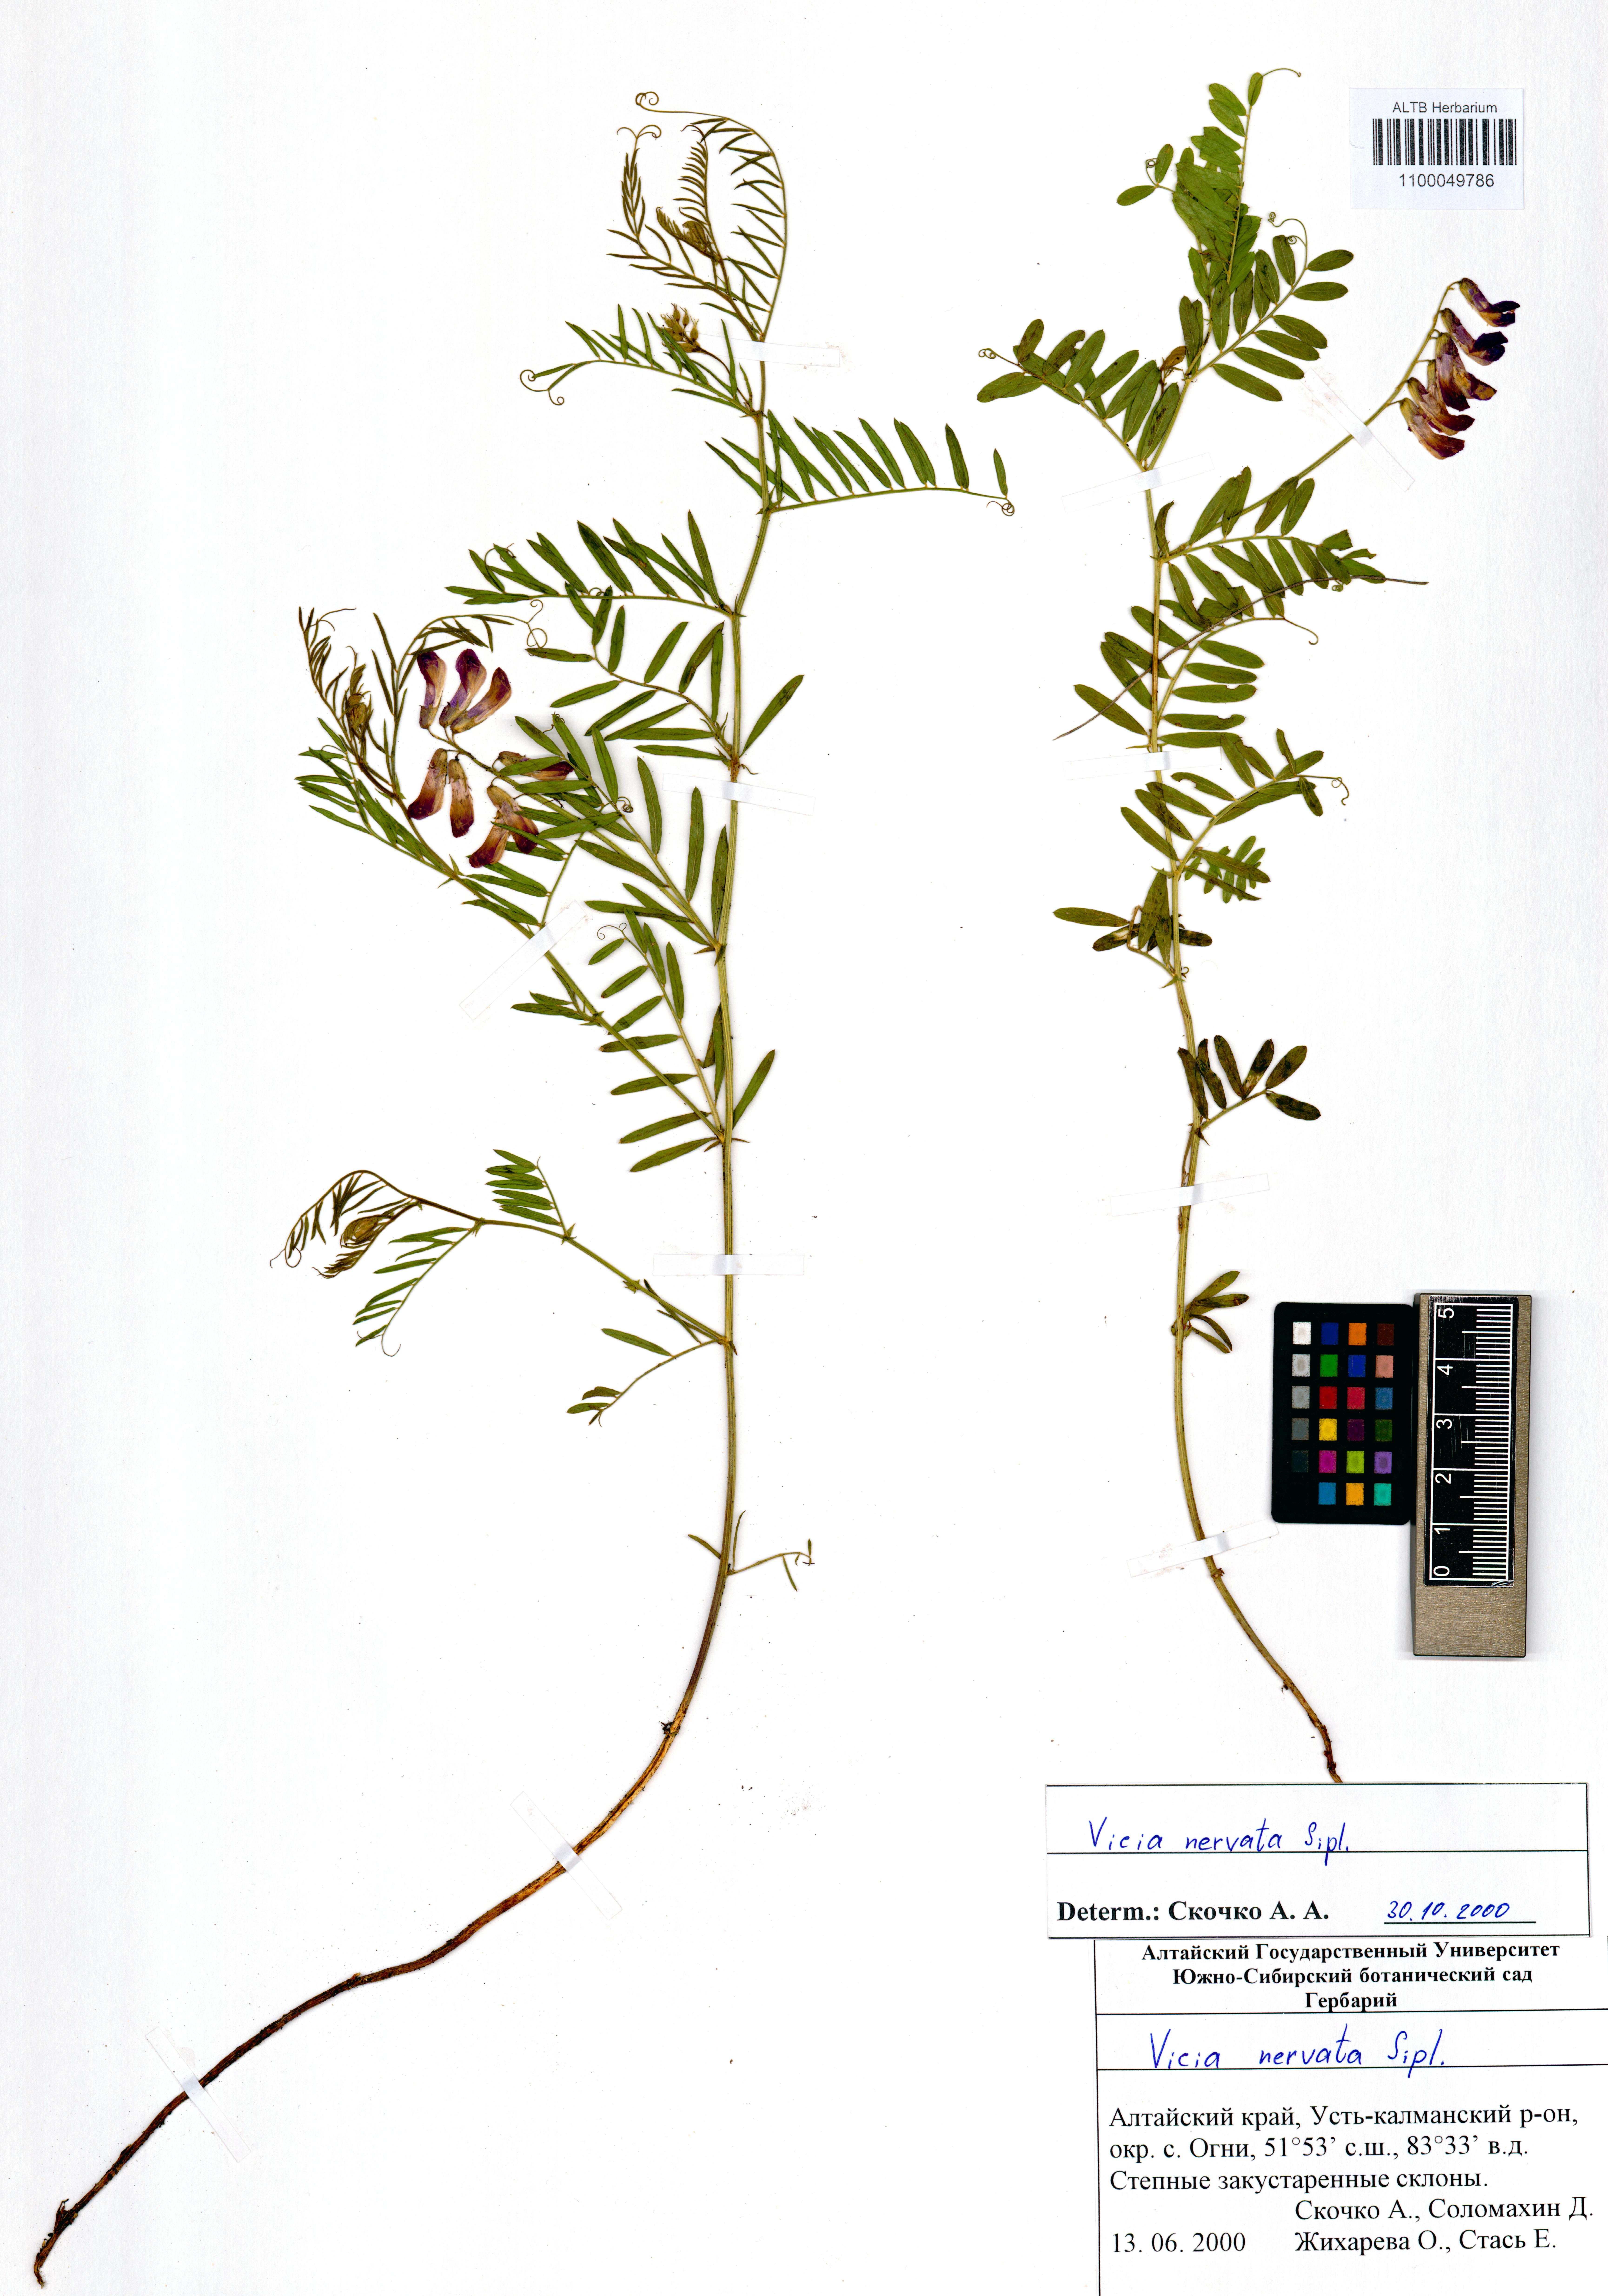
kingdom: Plantae
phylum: Tracheophyta
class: Magnoliopsida
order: Fabales
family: Fabaceae
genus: Vicia
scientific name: Vicia multicaulis
